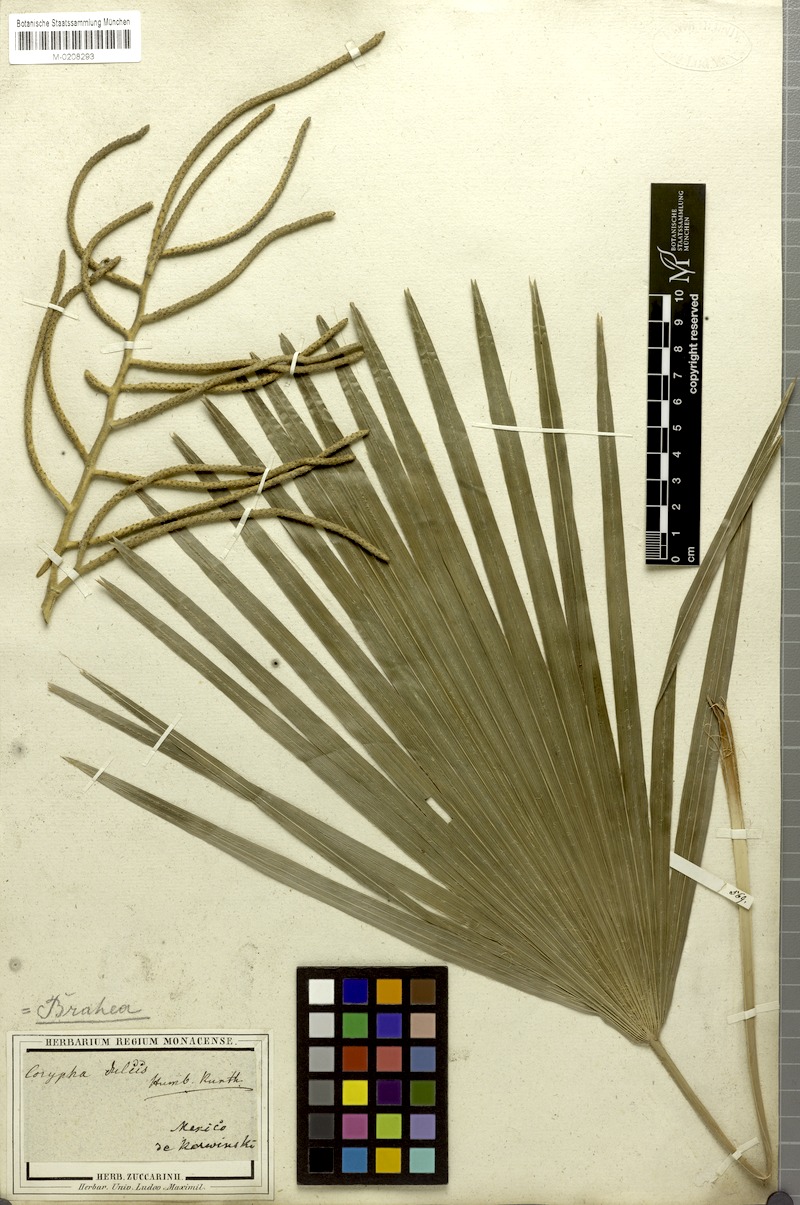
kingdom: Plantae
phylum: Tracheophyta
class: Liliopsida
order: Arecales
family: Arecaceae
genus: Brahea
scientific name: Brahea dulcis
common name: Apak palm
